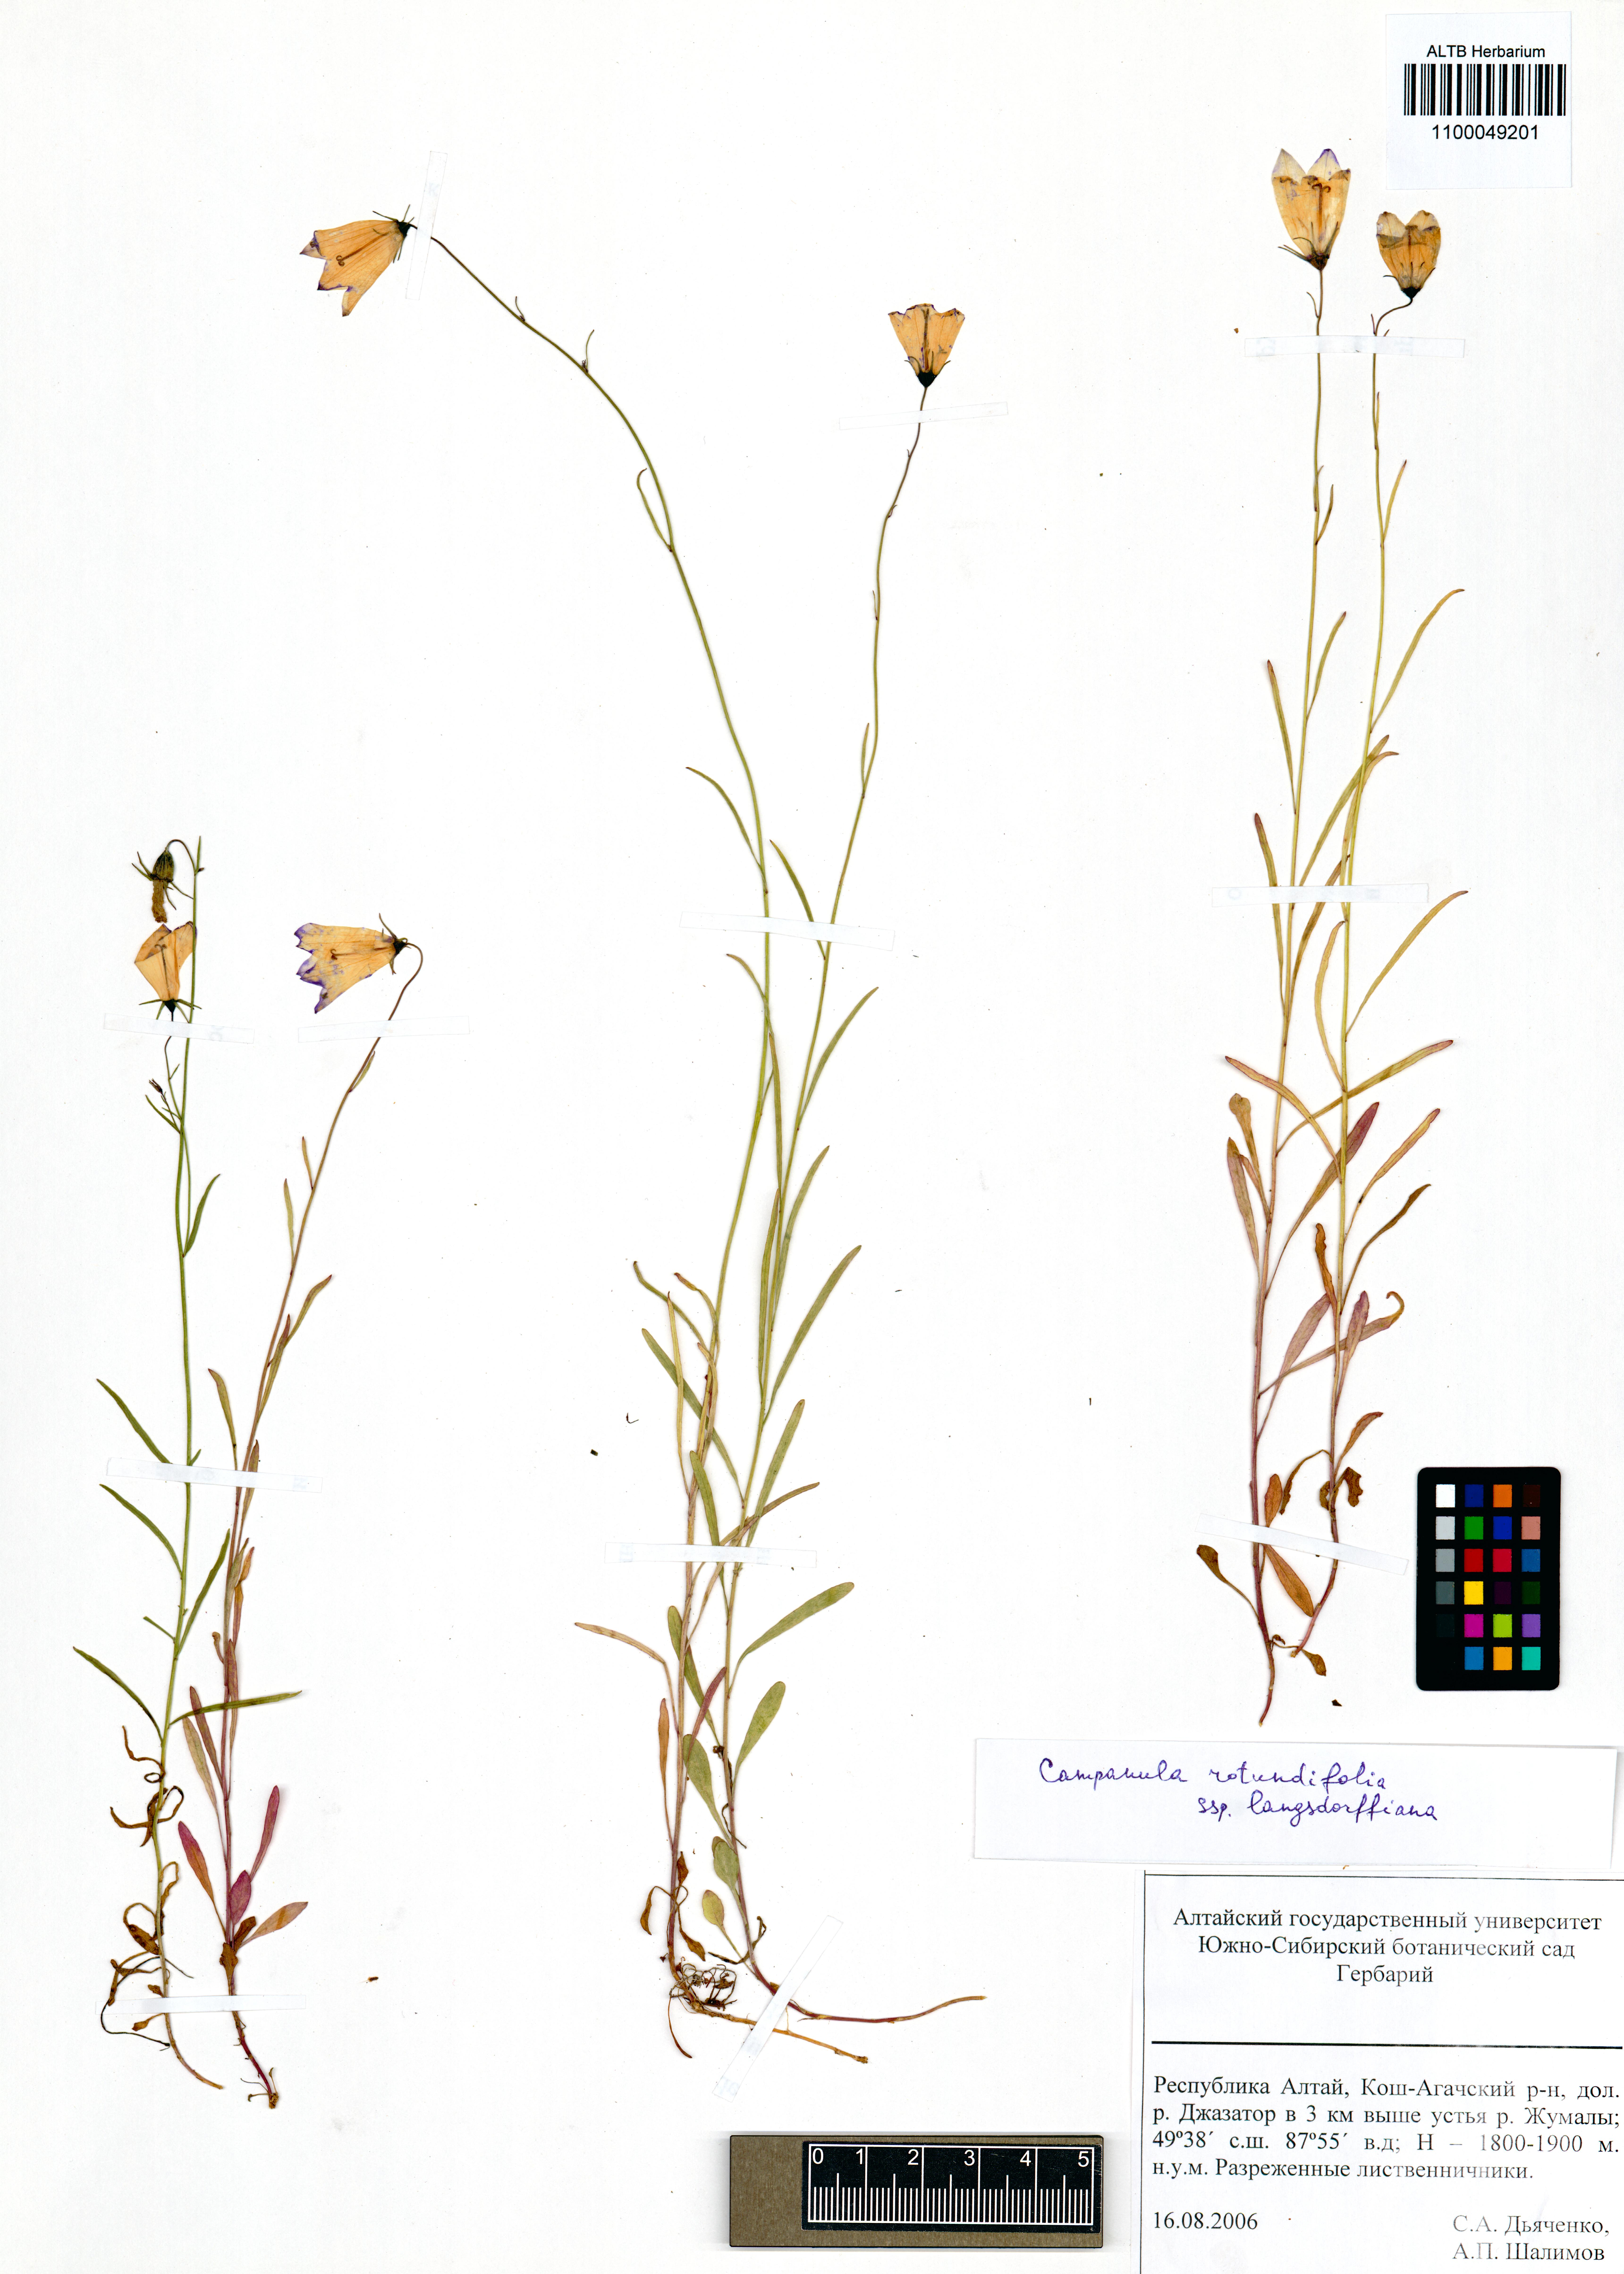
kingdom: Plantae
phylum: Tracheophyta
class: Magnoliopsida
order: Asterales
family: Campanulaceae
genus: Campanula
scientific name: Campanula rotundifolia
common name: Harebell
